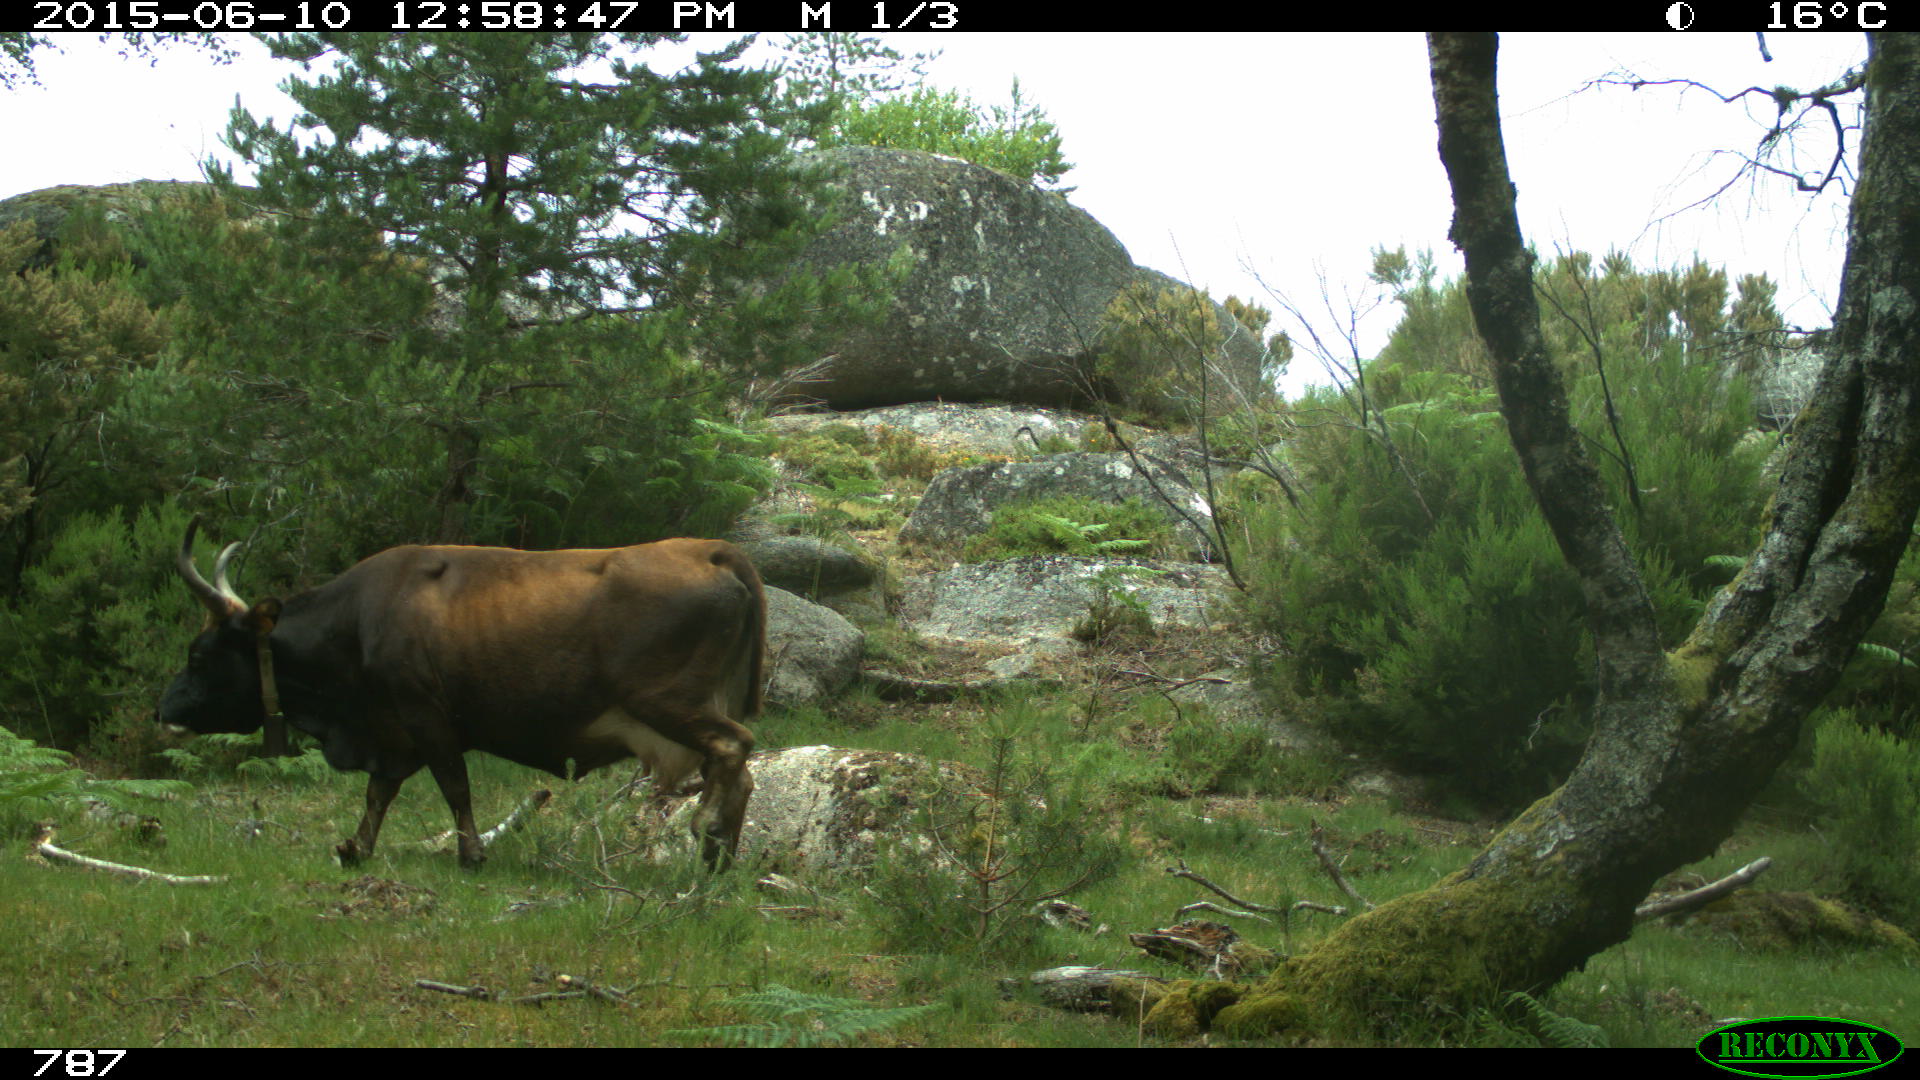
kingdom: Animalia
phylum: Chordata
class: Mammalia
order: Artiodactyla
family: Bovidae
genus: Bos
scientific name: Bos taurus
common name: Domesticated cattle
